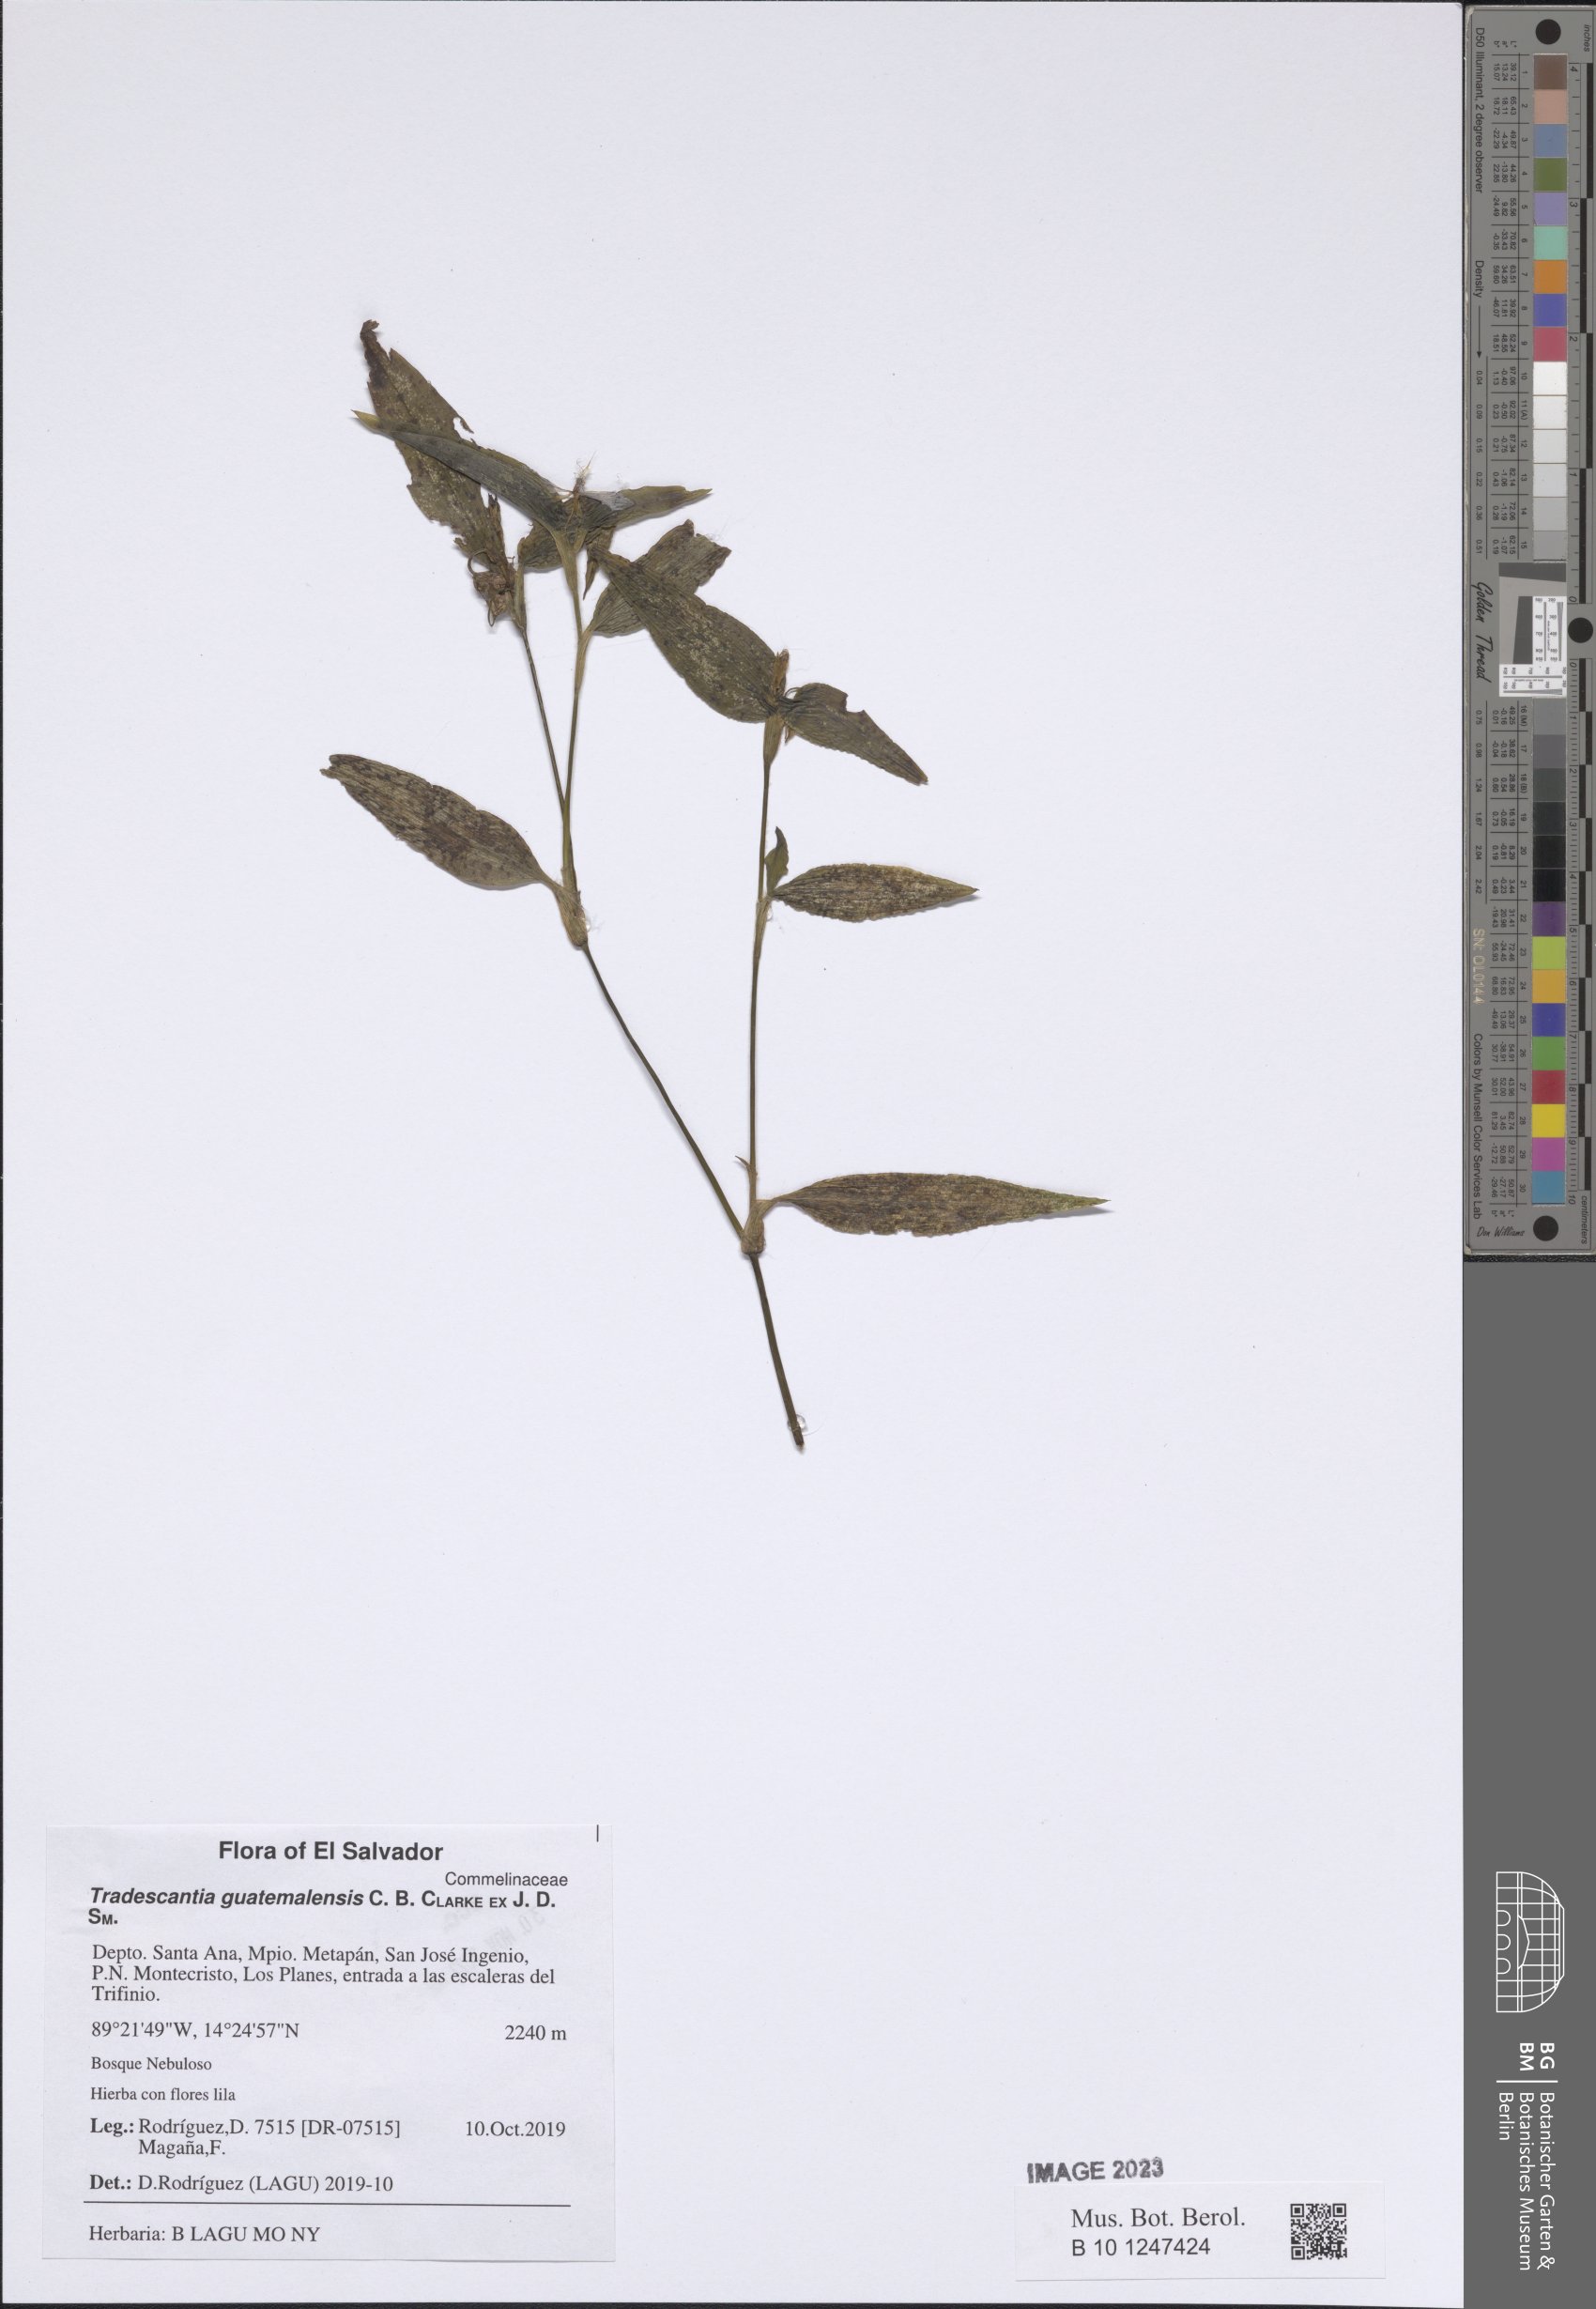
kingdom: Plantae
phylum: Tracheophyta
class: Liliopsida
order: Commelinales
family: Commelinaceae
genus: Elasis
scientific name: Elasis guatemalensis
